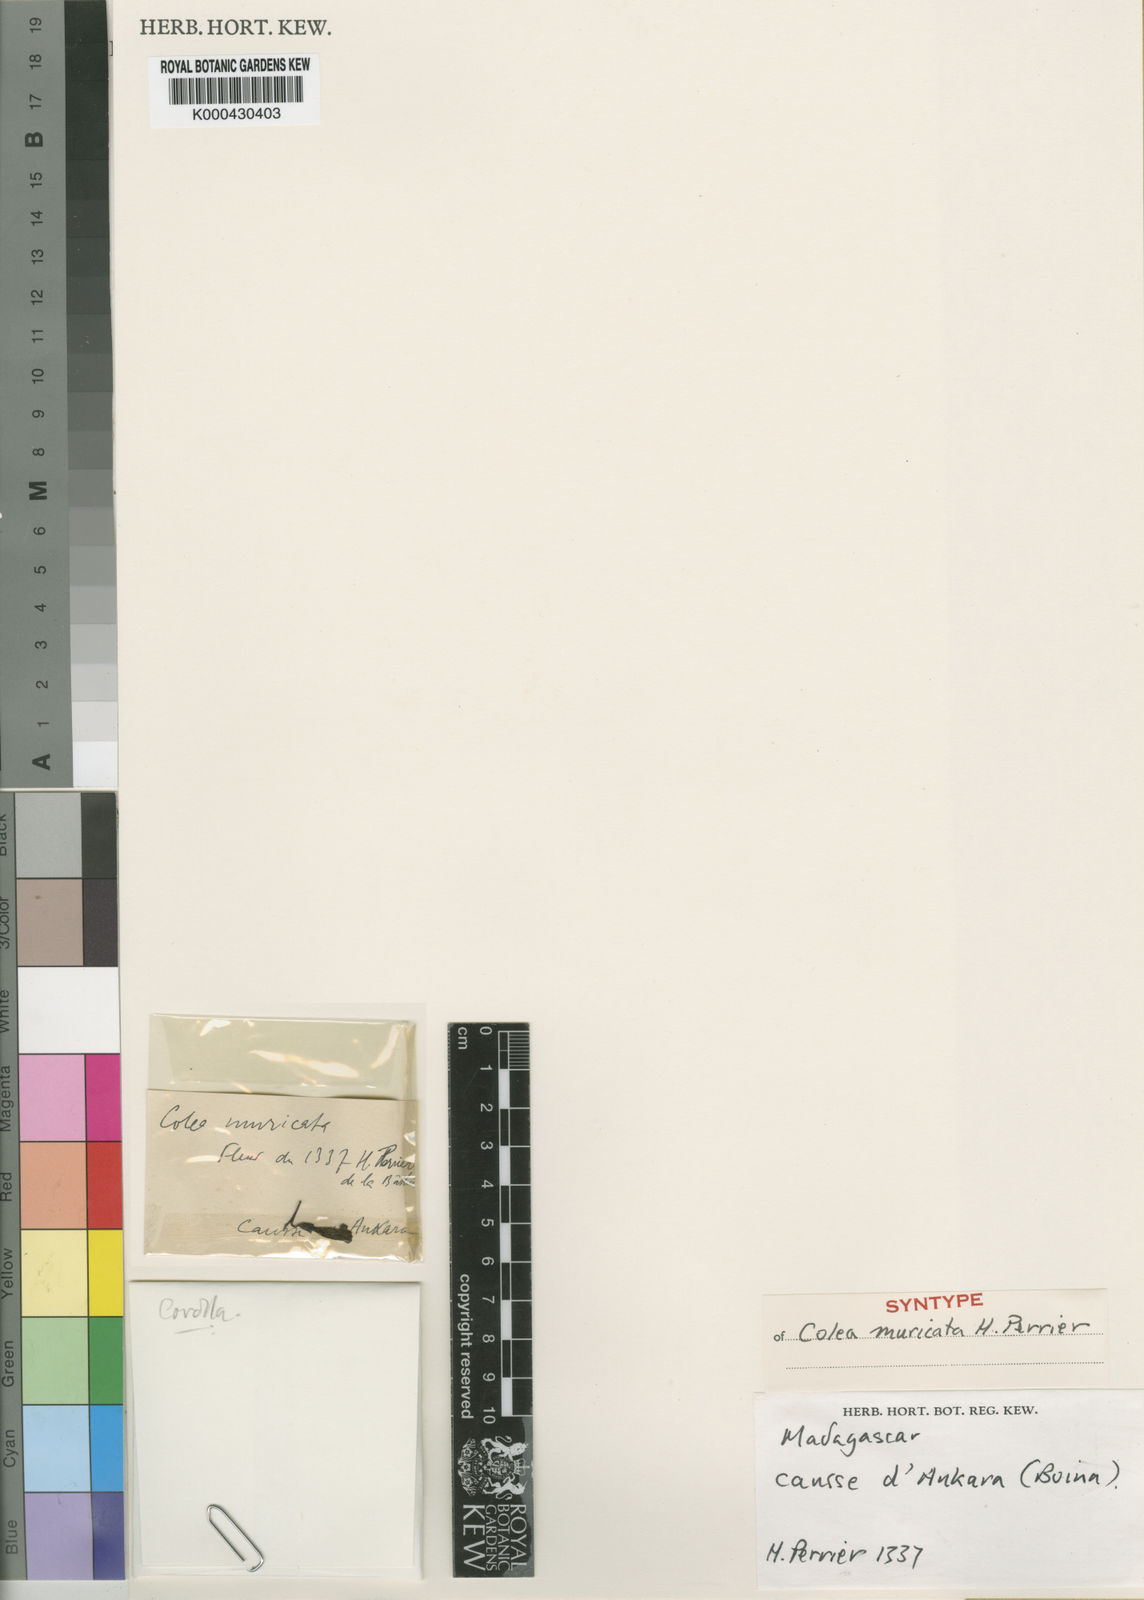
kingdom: Plantae
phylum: Tracheophyta
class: Magnoliopsida
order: Lamiales
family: Bignoniaceae
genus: Colea
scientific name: Colea muricata
